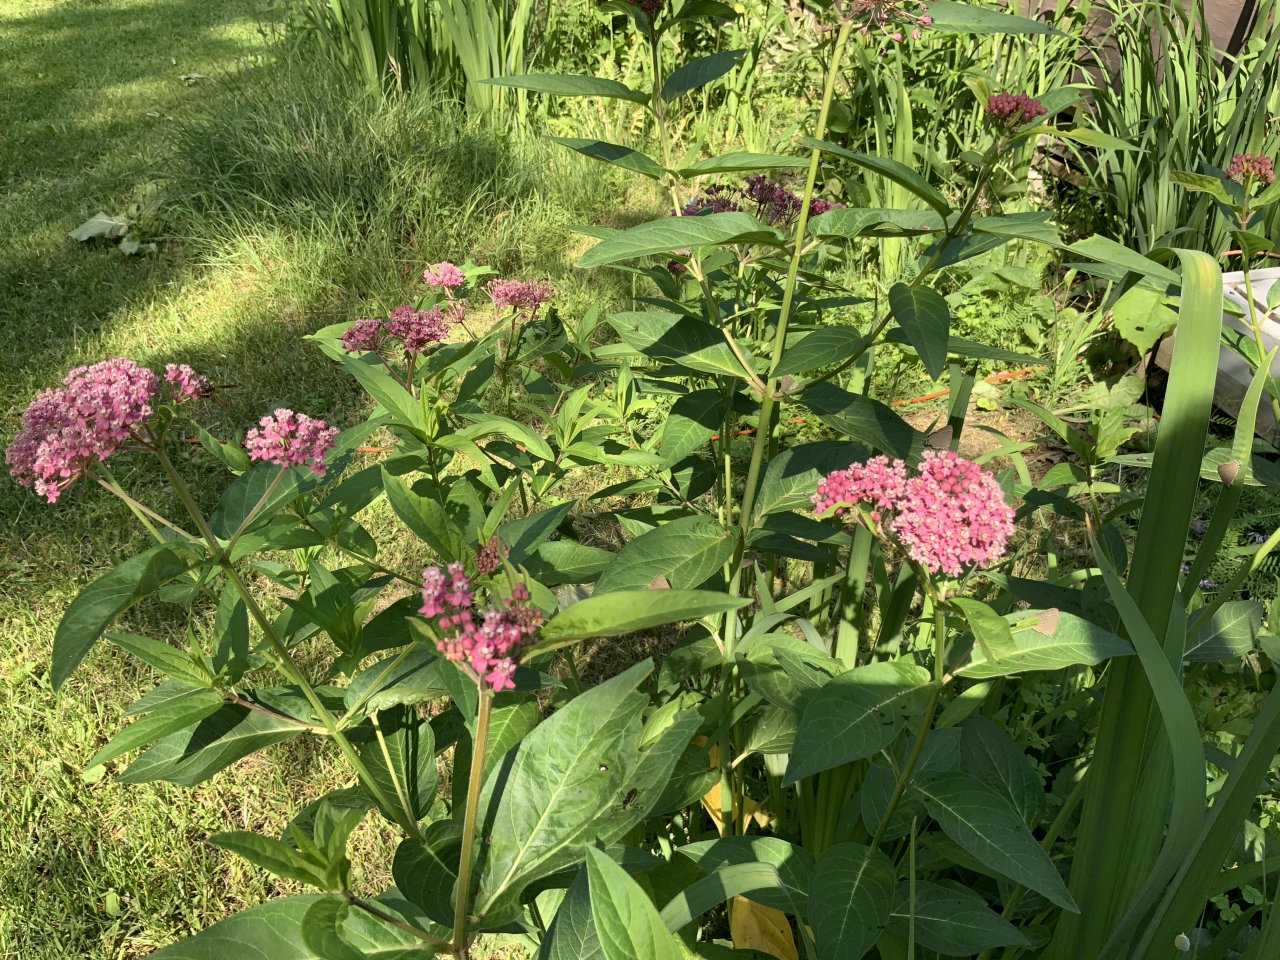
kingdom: Animalia
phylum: Arthropoda
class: Insecta
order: Lepidoptera
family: Lycaenidae
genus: Strymon
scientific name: Strymon caryaevorus
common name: Hickory Hairstreak
